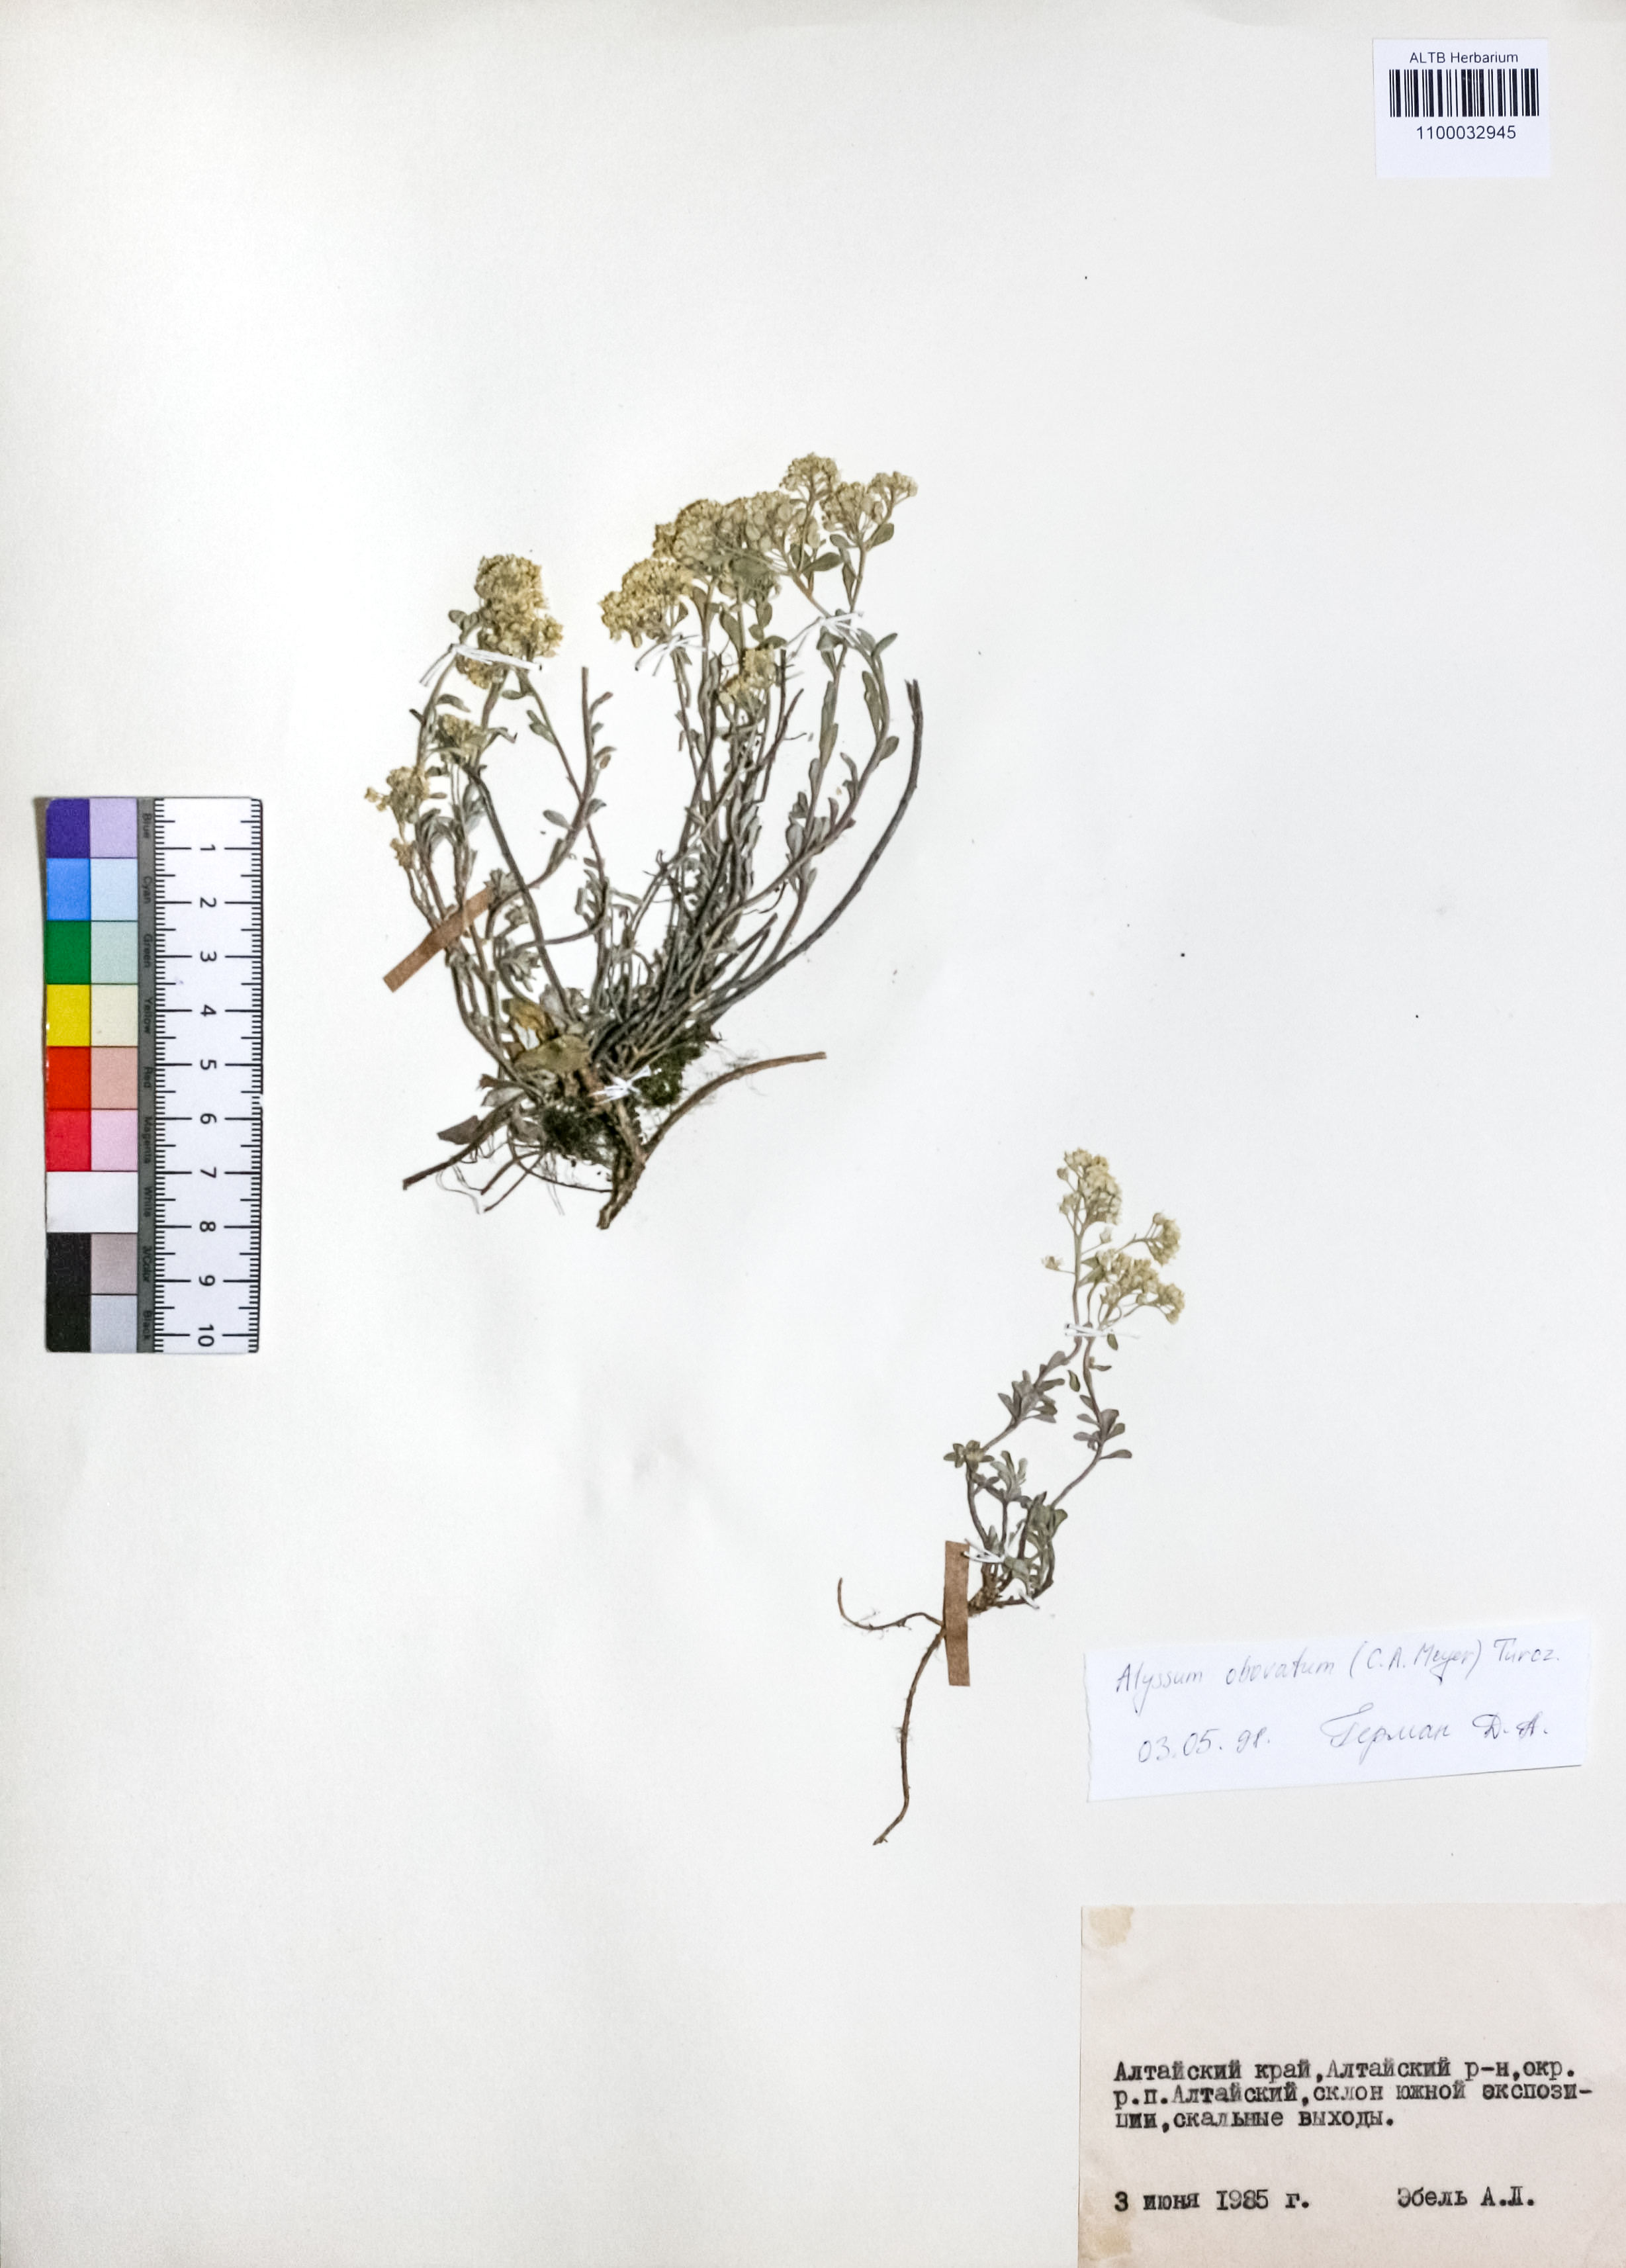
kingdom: Plantae
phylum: Tracheophyta
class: Magnoliopsida
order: Brassicales
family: Brassicaceae
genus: Odontarrhena
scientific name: Odontarrhena obovata
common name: American alyssum
